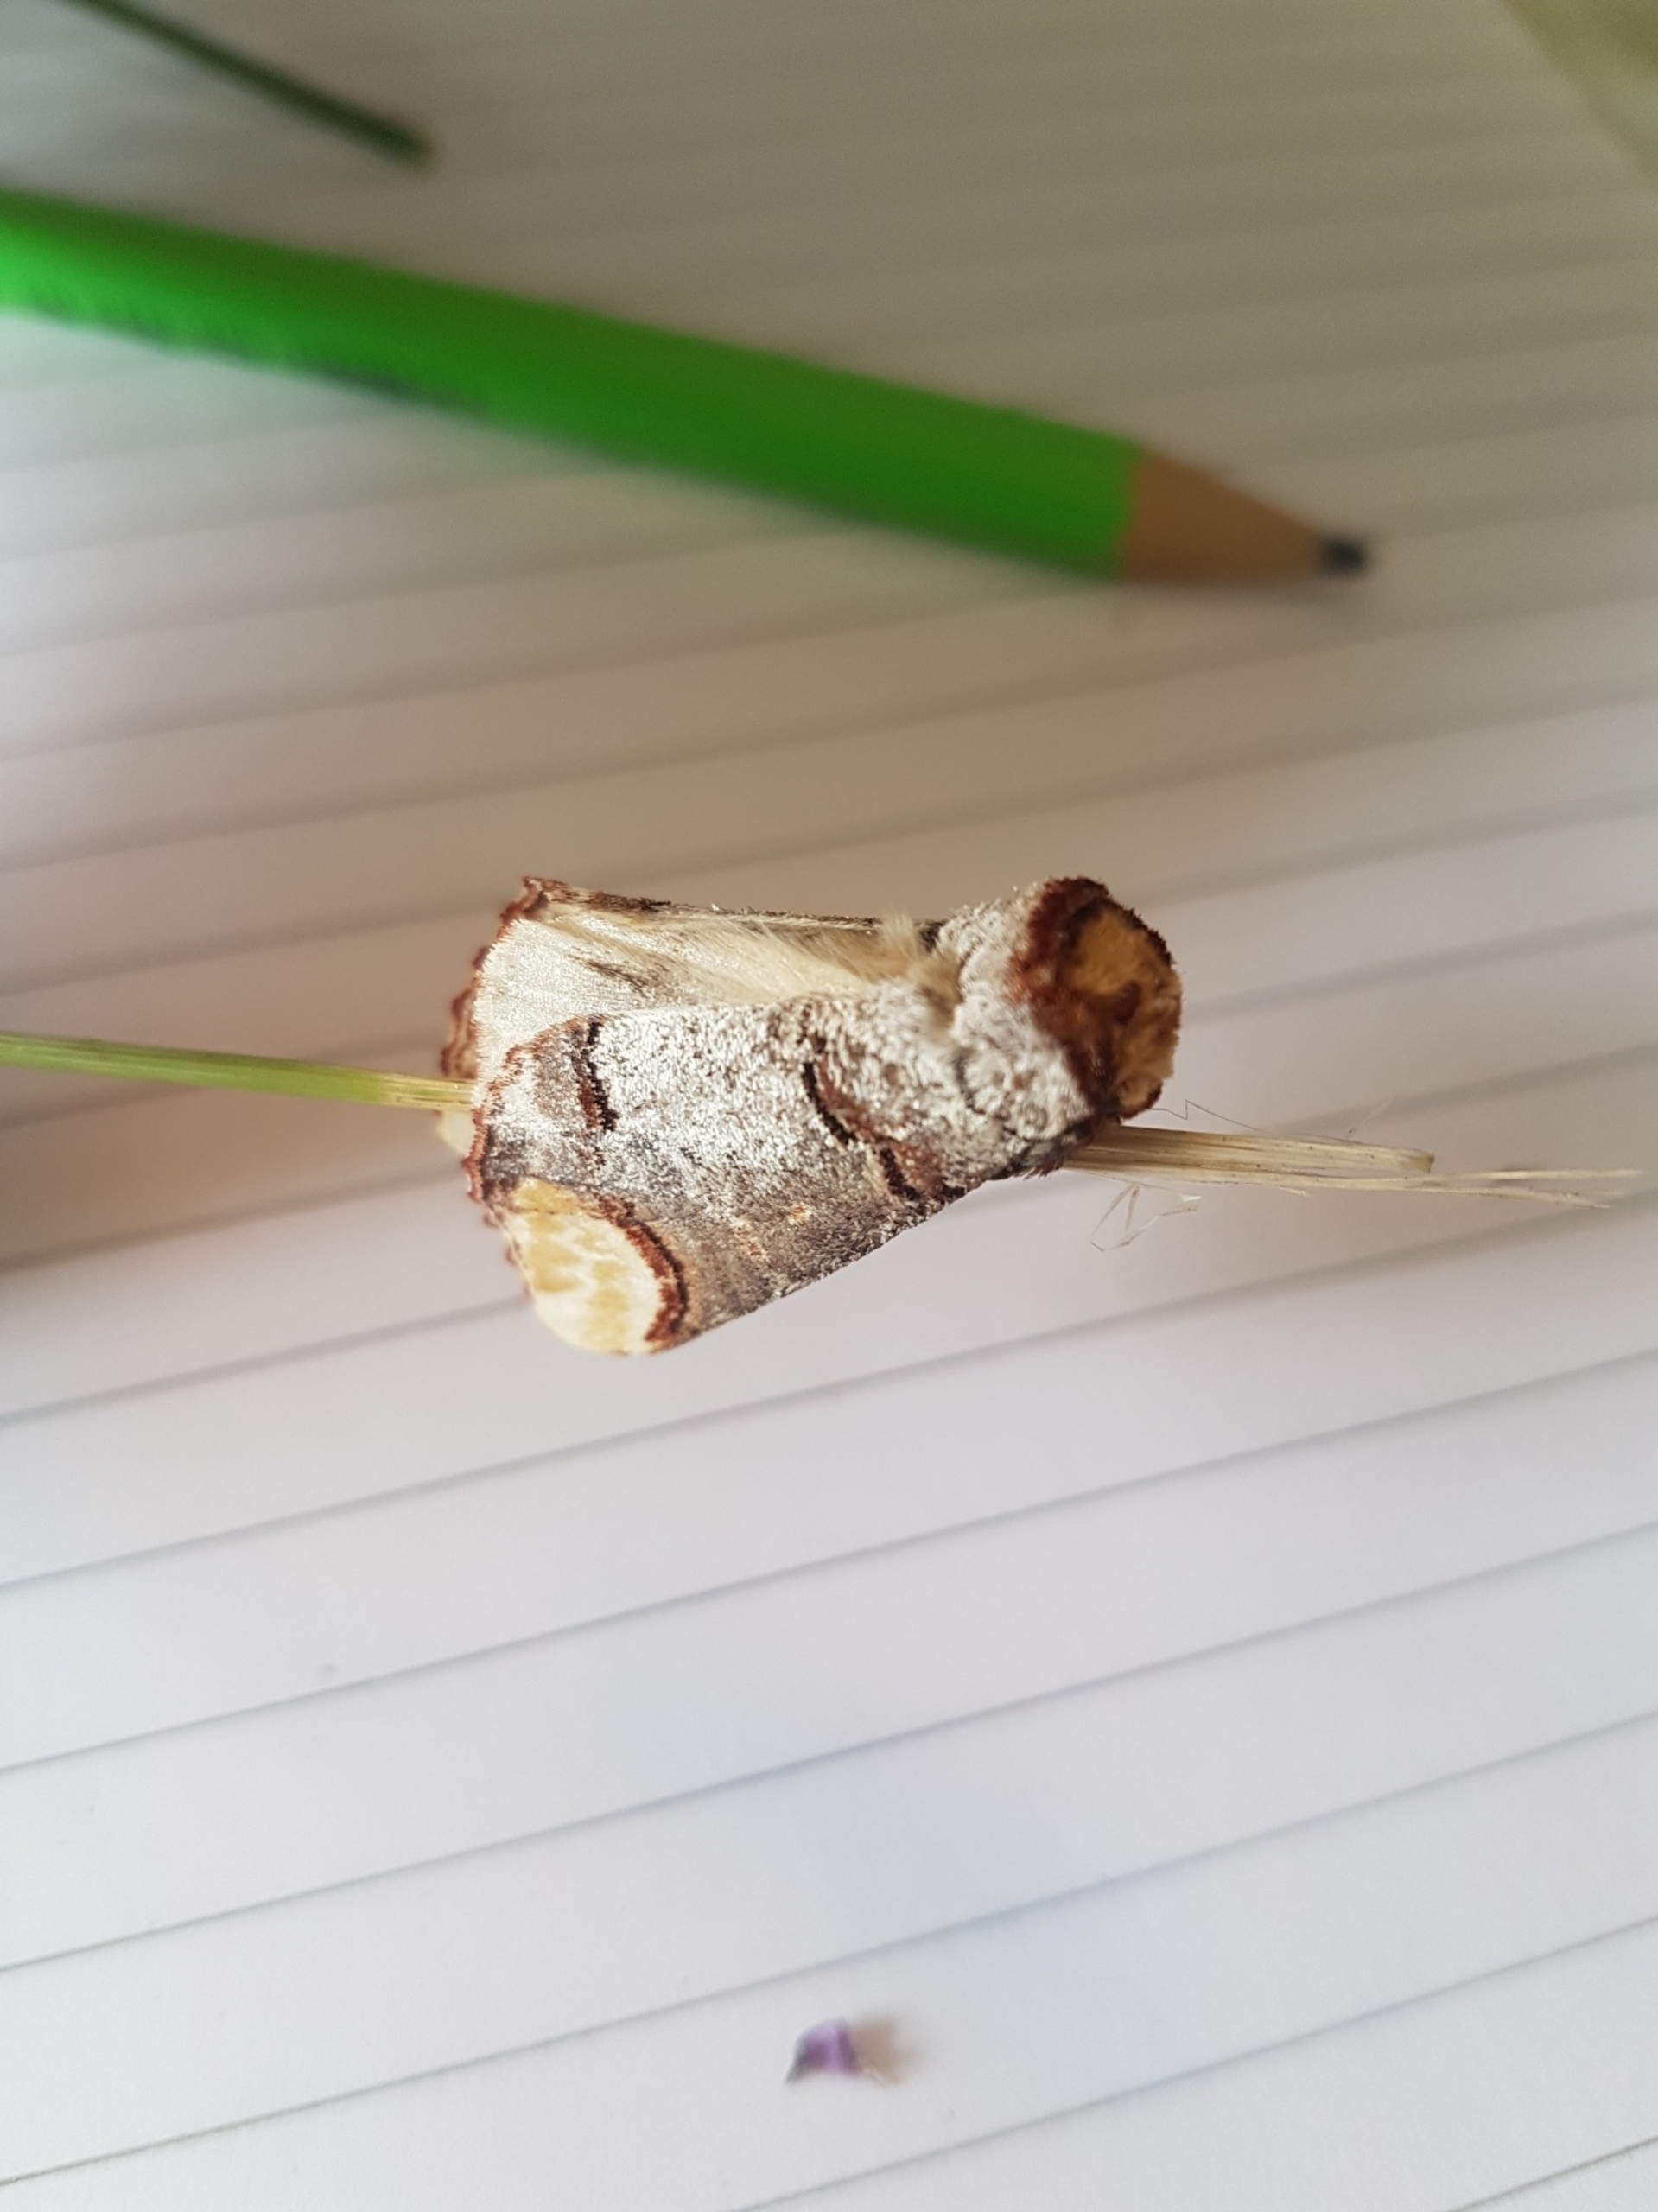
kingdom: Animalia
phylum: Arthropoda
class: Insecta
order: Lepidoptera
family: Notodontidae
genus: Phalera
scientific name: Phalera bucephala
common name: Måneplet
